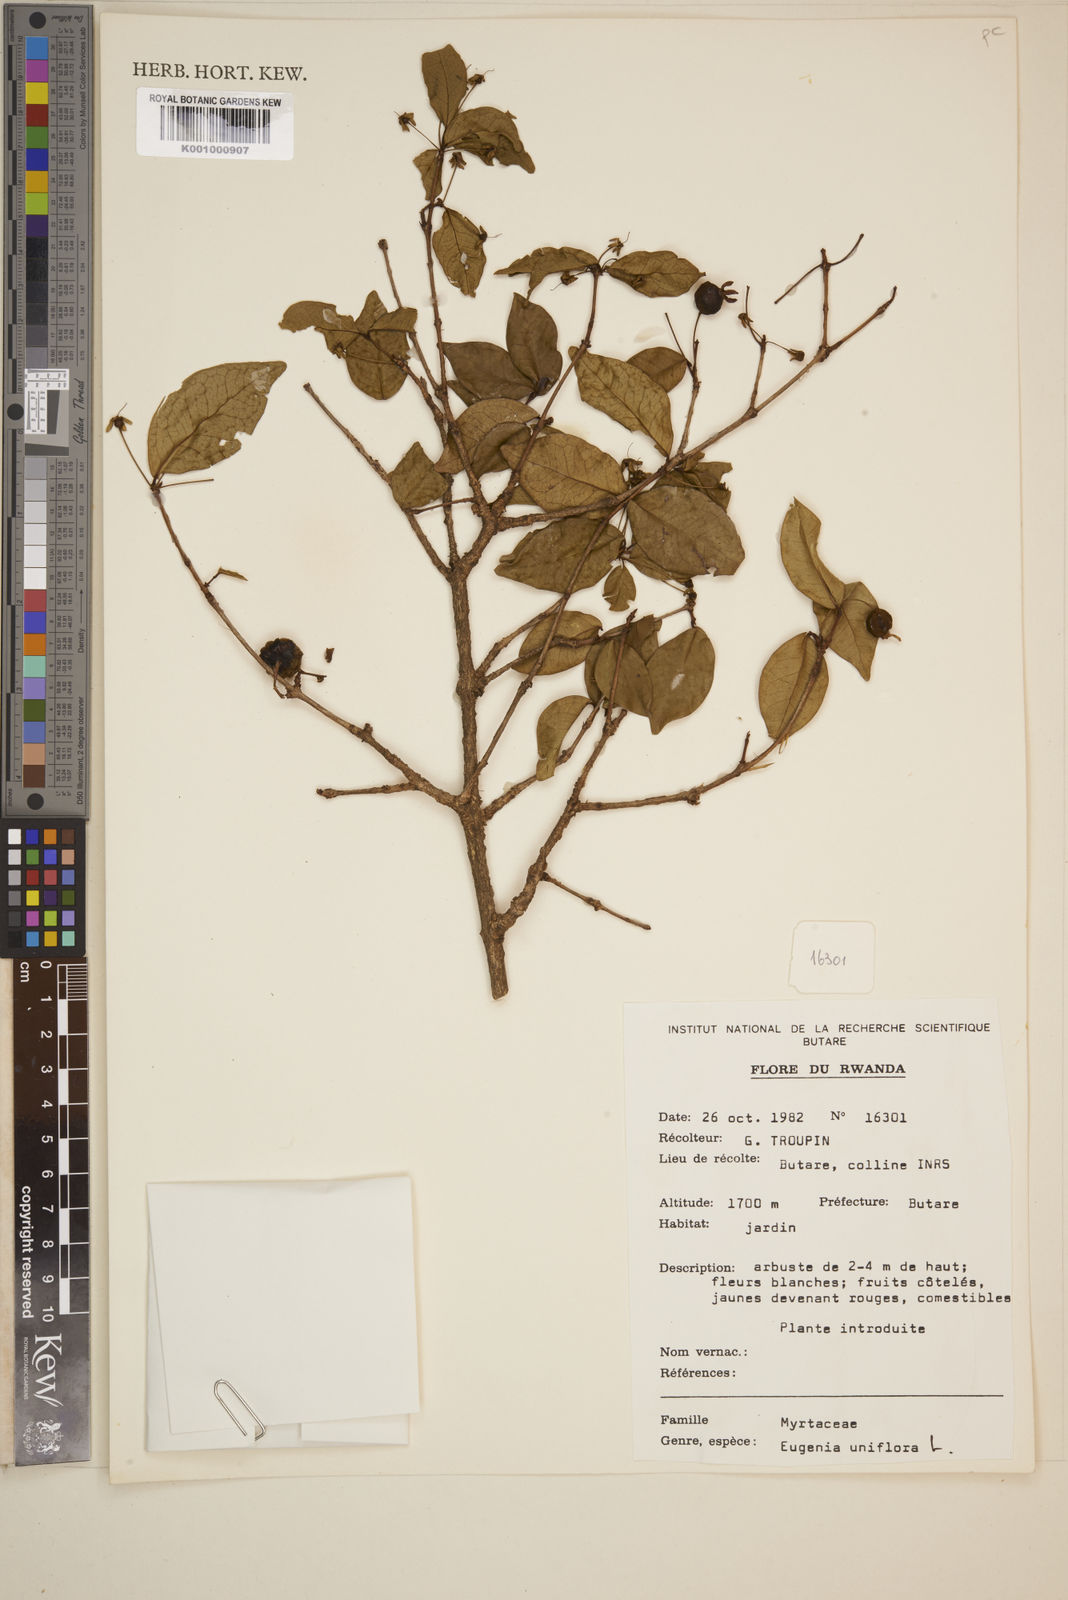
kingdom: Plantae
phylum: Tracheophyta
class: Magnoliopsida
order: Myrtales
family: Myrtaceae
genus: Eugenia
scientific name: Eugenia uniflora
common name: Surinam cherry
